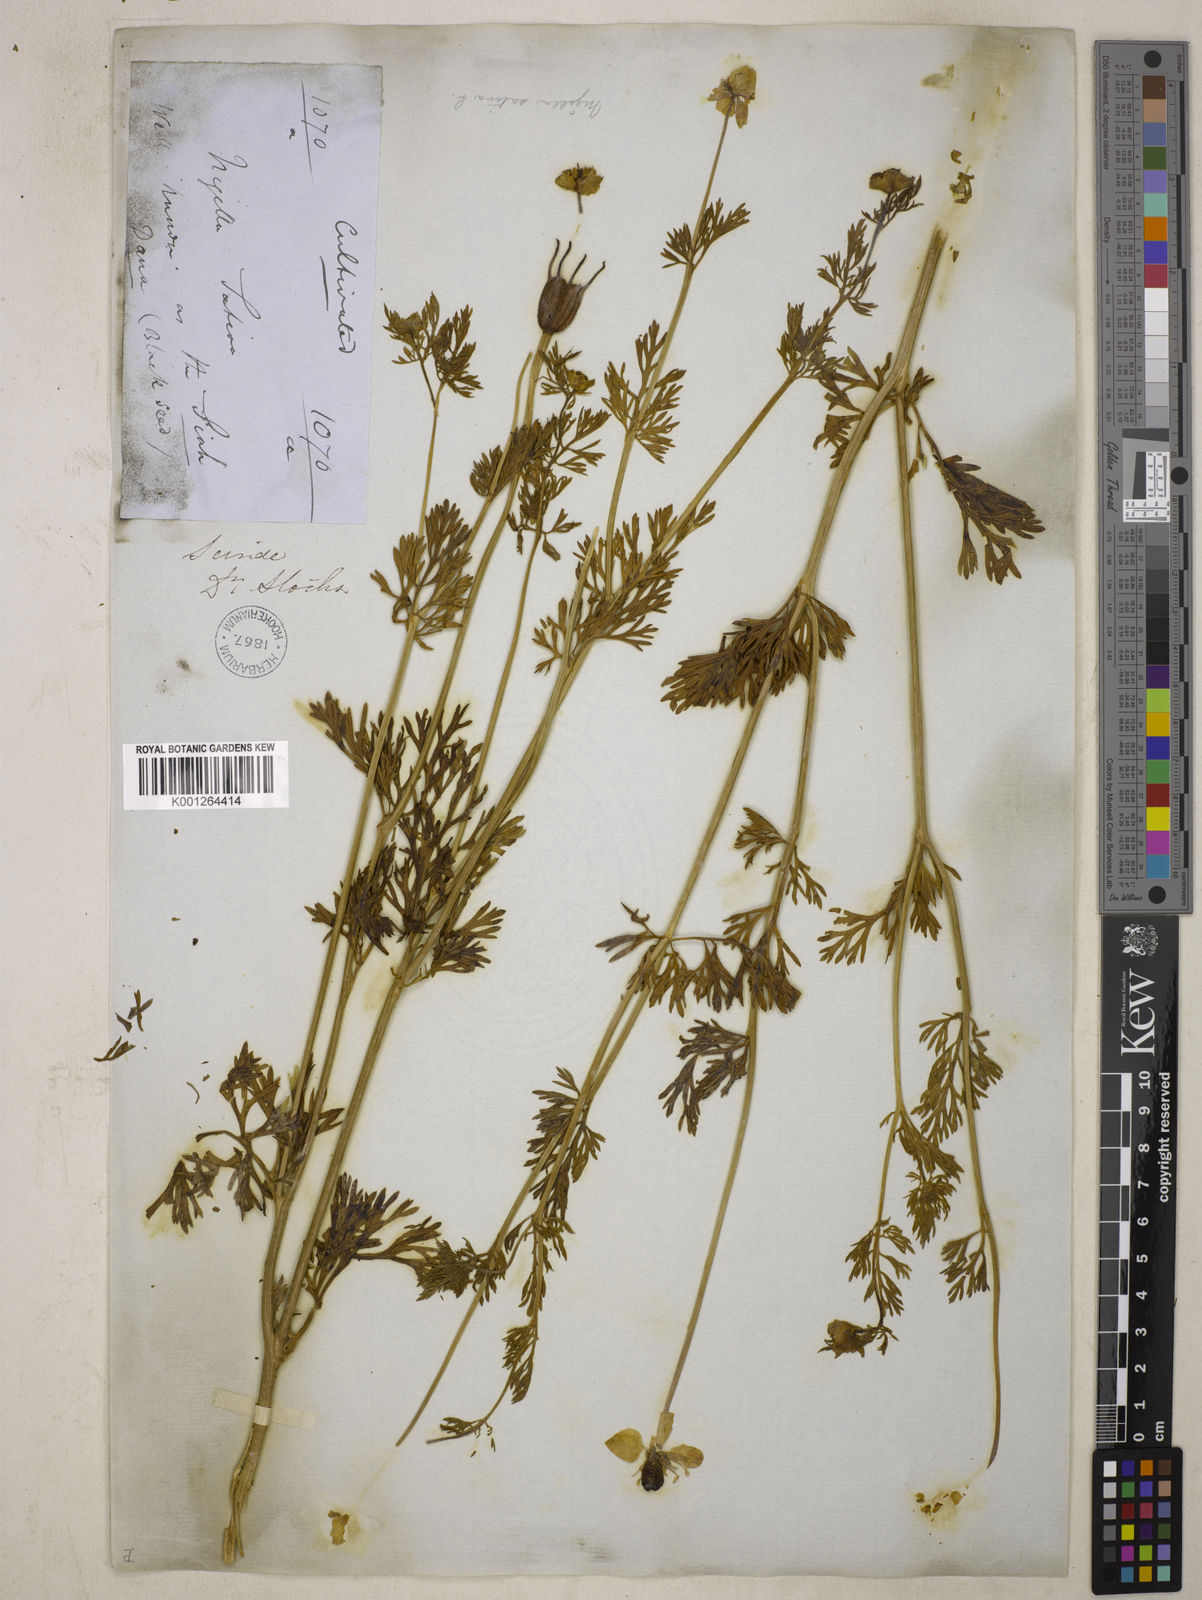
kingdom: Plantae
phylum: Tracheophyta
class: Magnoliopsida
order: Ranunculales
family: Ranunculaceae
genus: Nigella
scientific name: Nigella sativa
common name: Black-cumin
